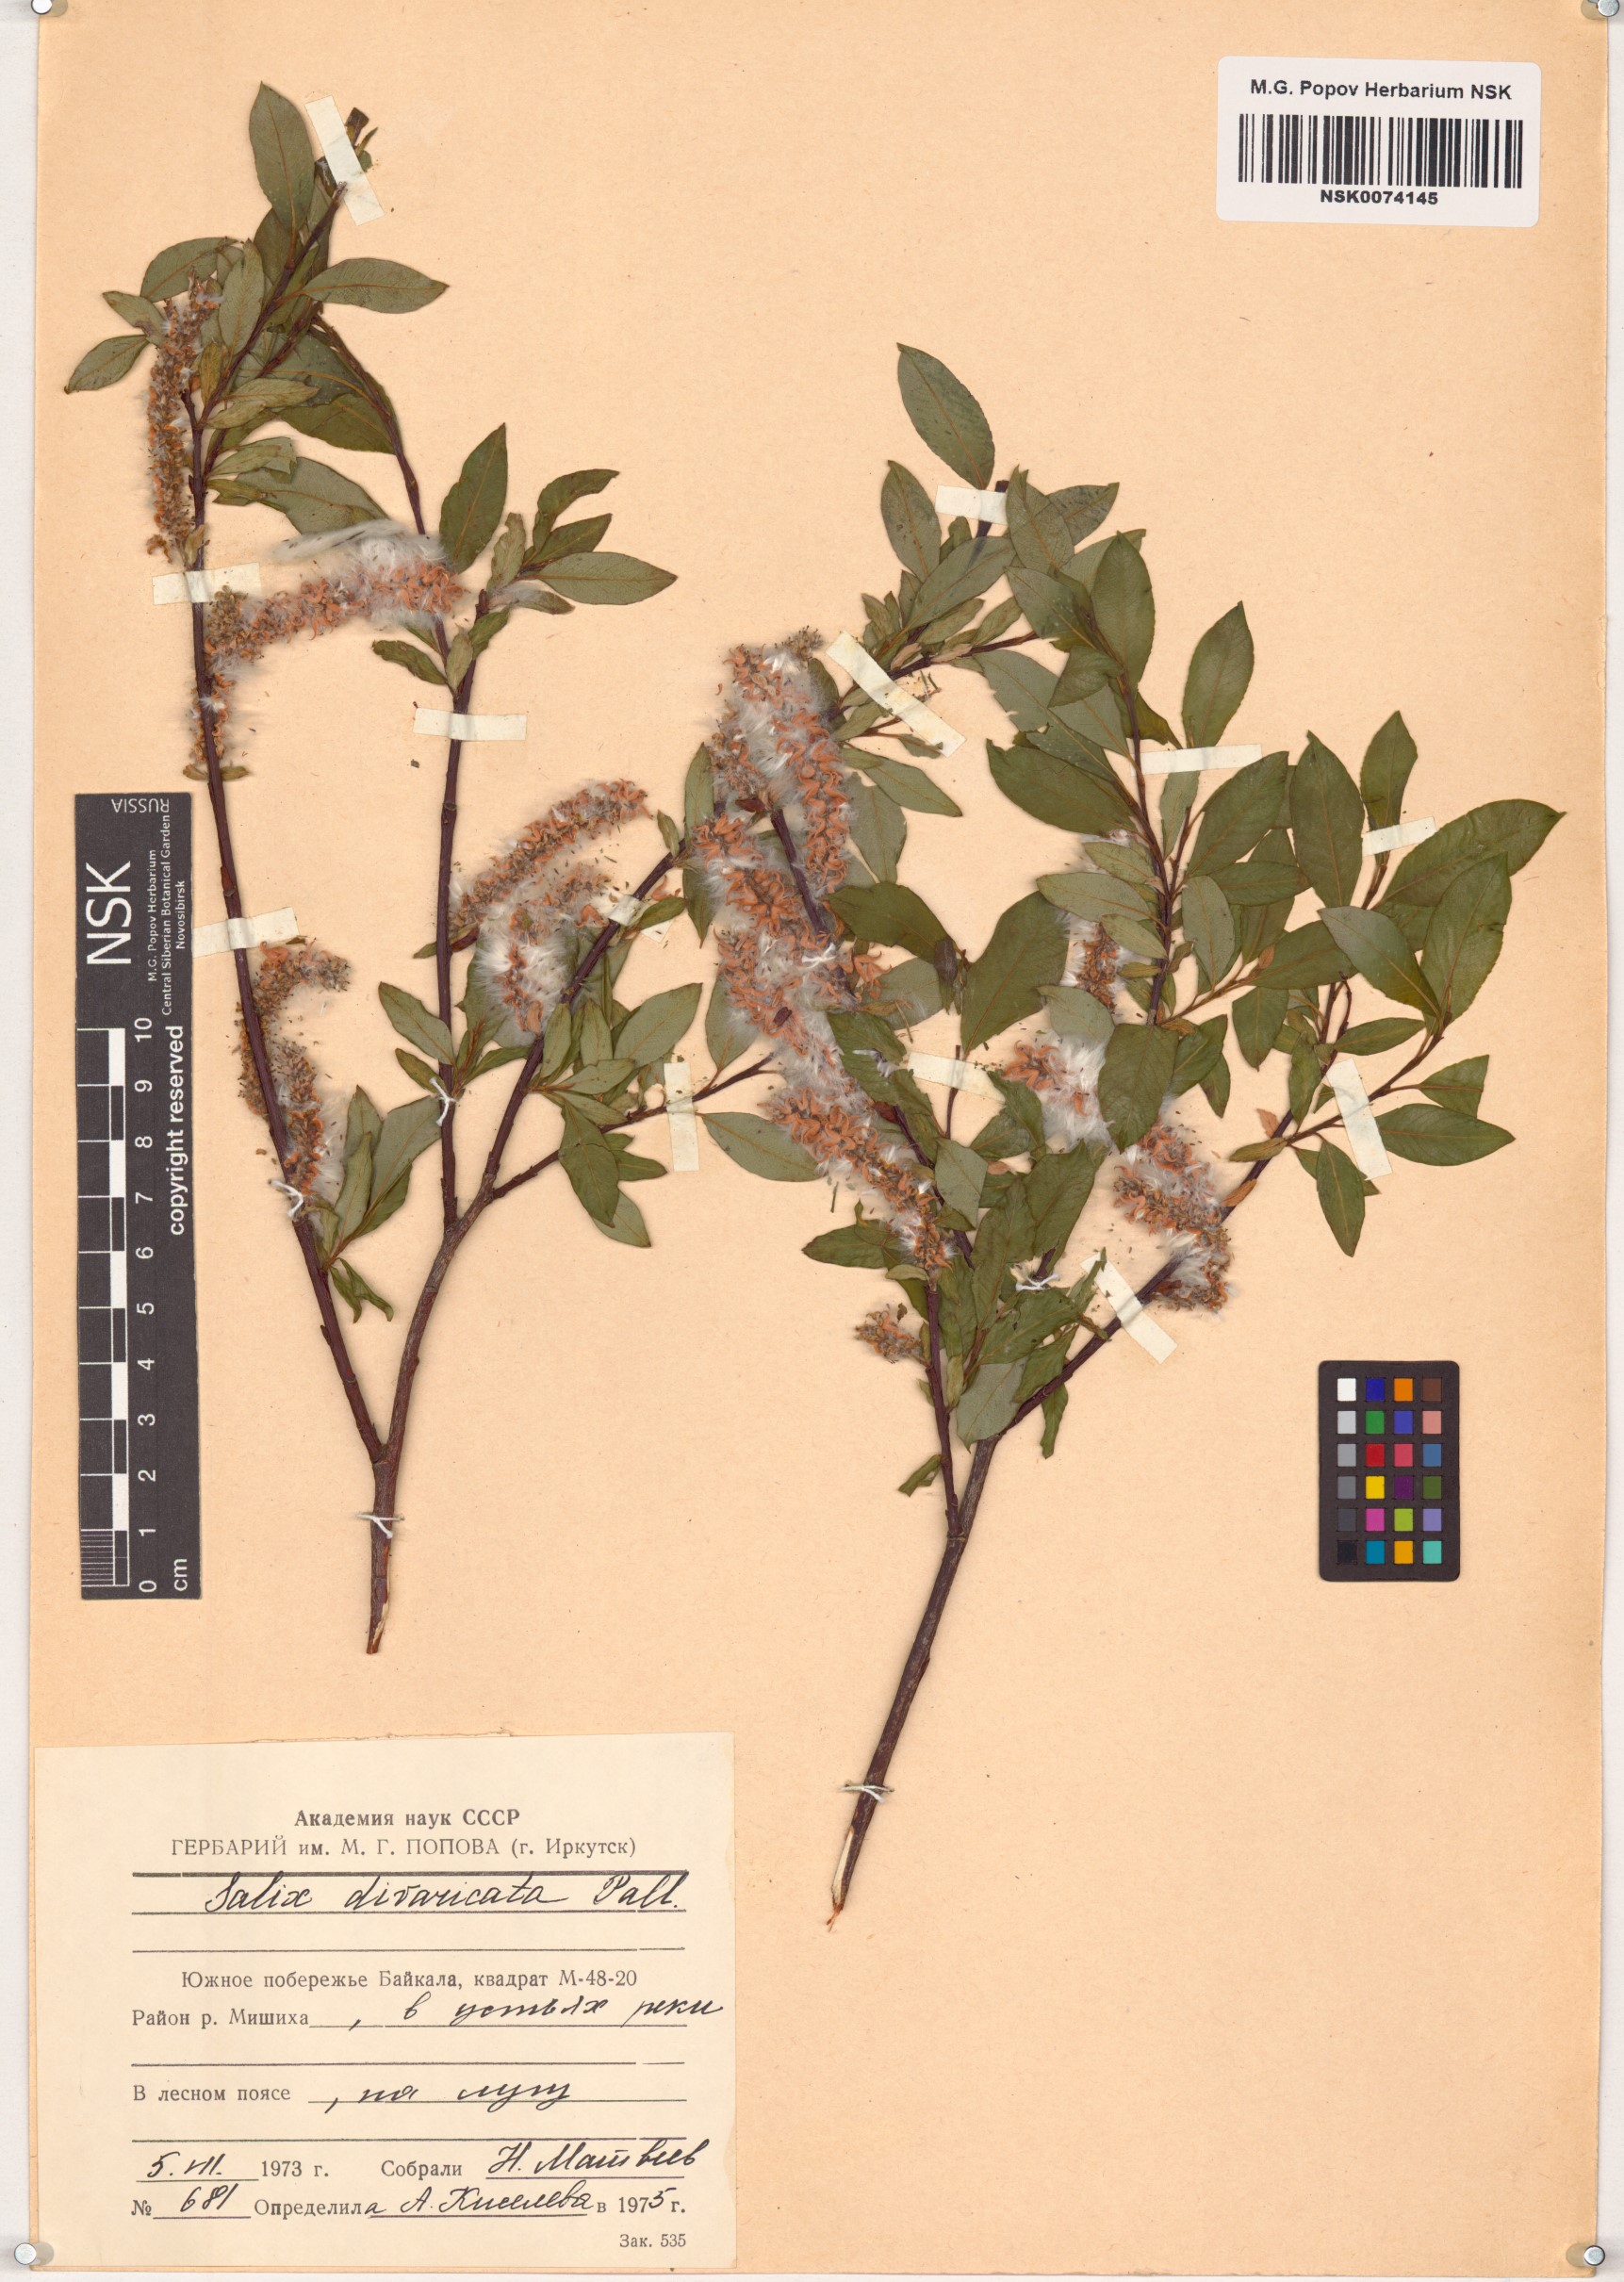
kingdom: Plantae
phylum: Tracheophyta
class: Magnoliopsida
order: Malpighiales
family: Salicaceae
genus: Salix
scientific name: Salix divaricata
